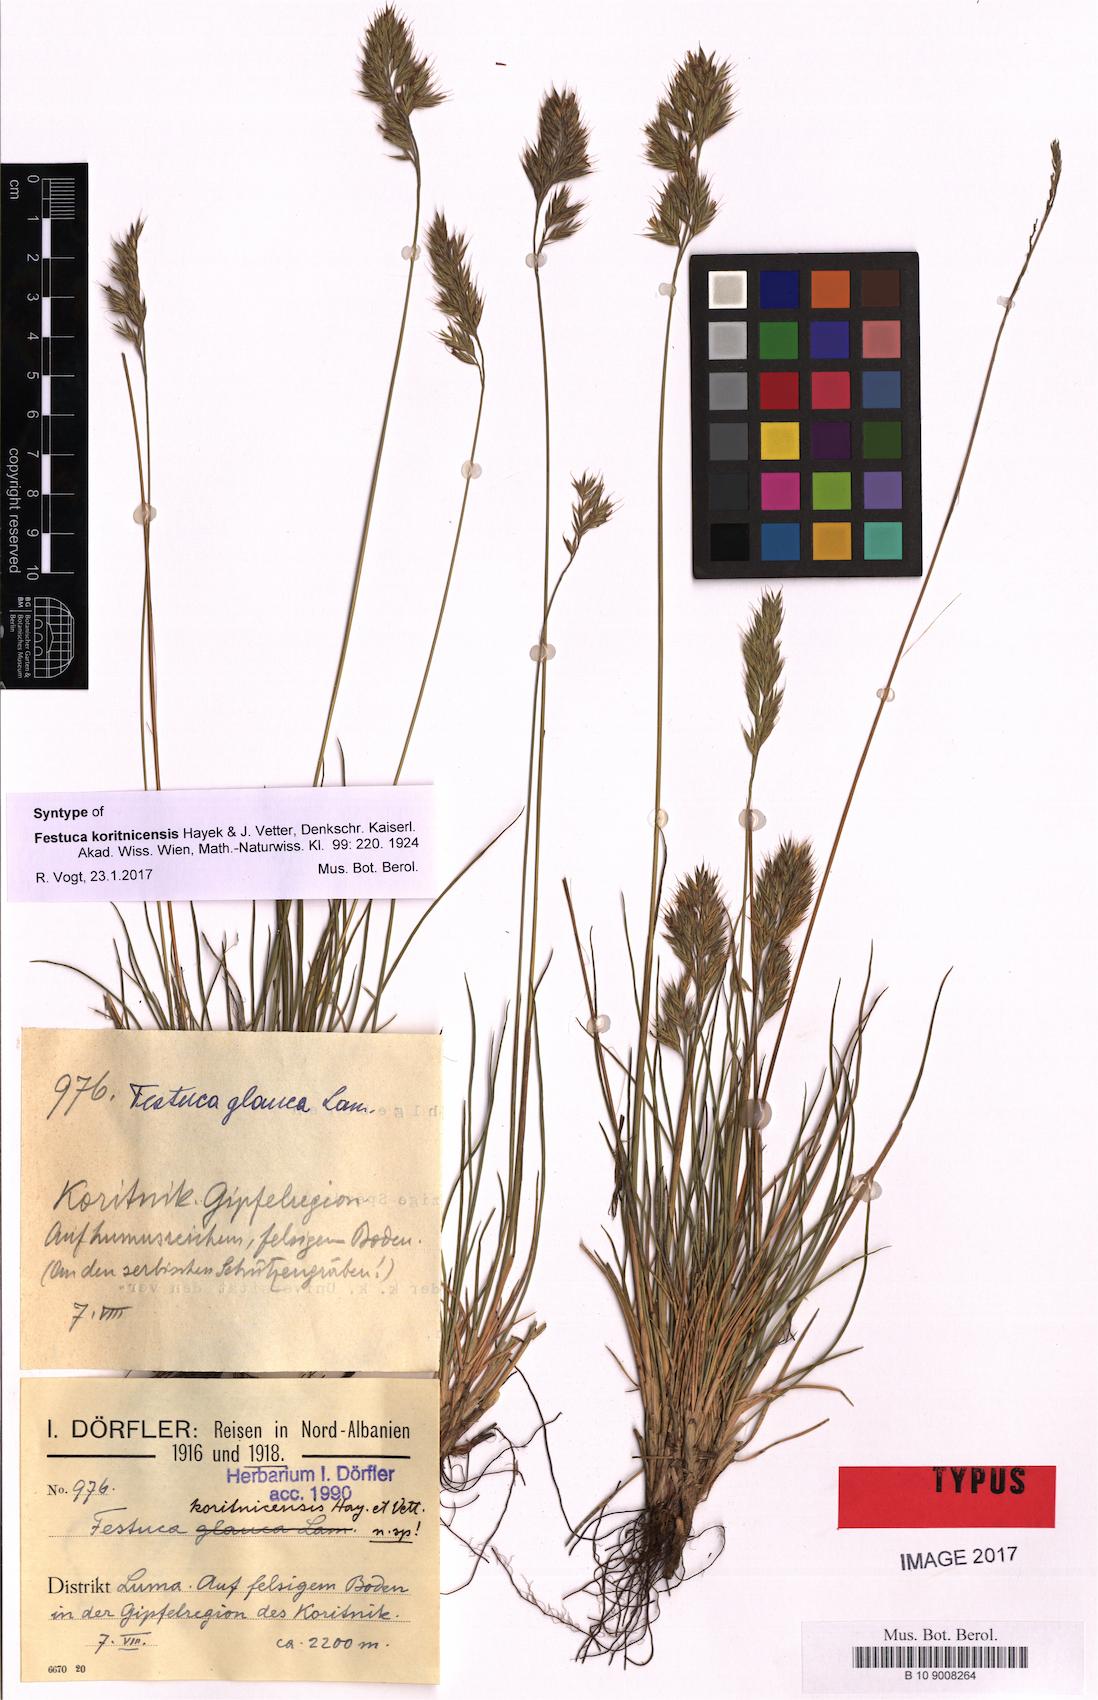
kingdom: Plantae
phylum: Tracheophyta
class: Liliopsida
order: Poales
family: Poaceae
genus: Festuca
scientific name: Festuca koritnicensis
